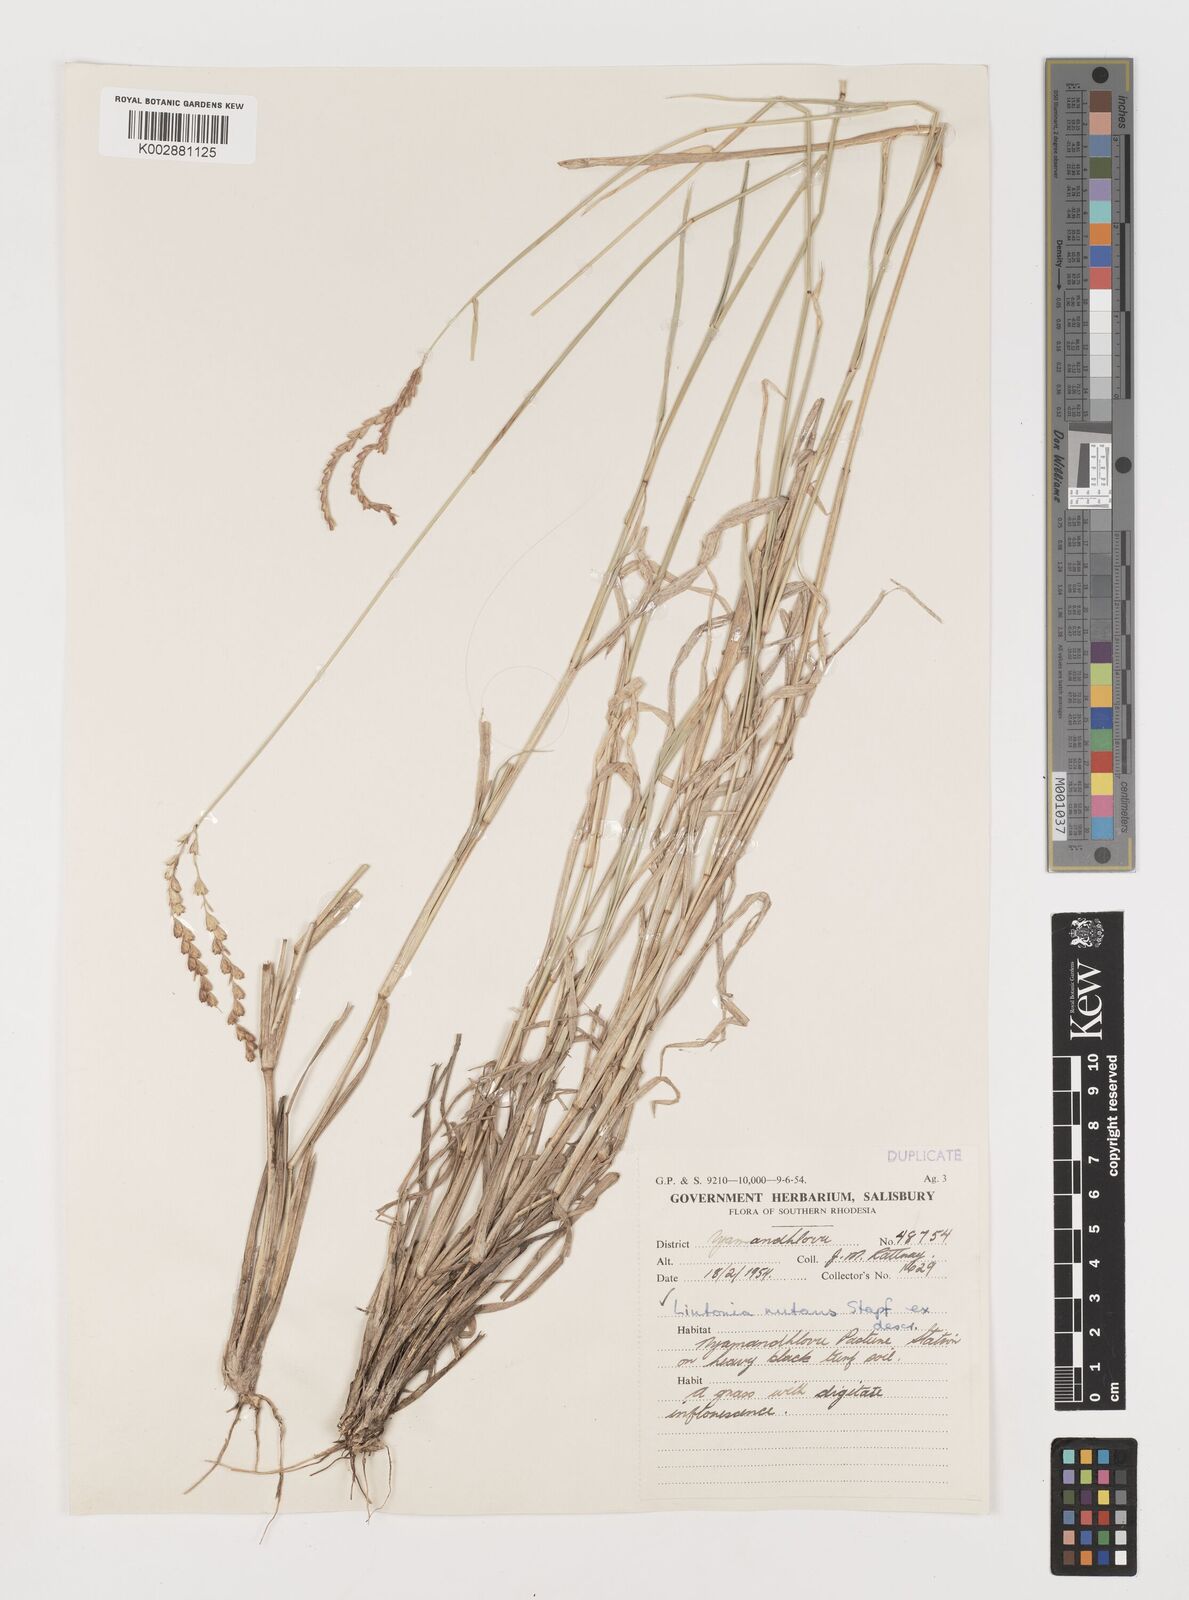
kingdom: Plantae
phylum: Tracheophyta
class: Liliopsida
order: Poales
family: Poaceae
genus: Chloris
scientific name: Chloris nutans
